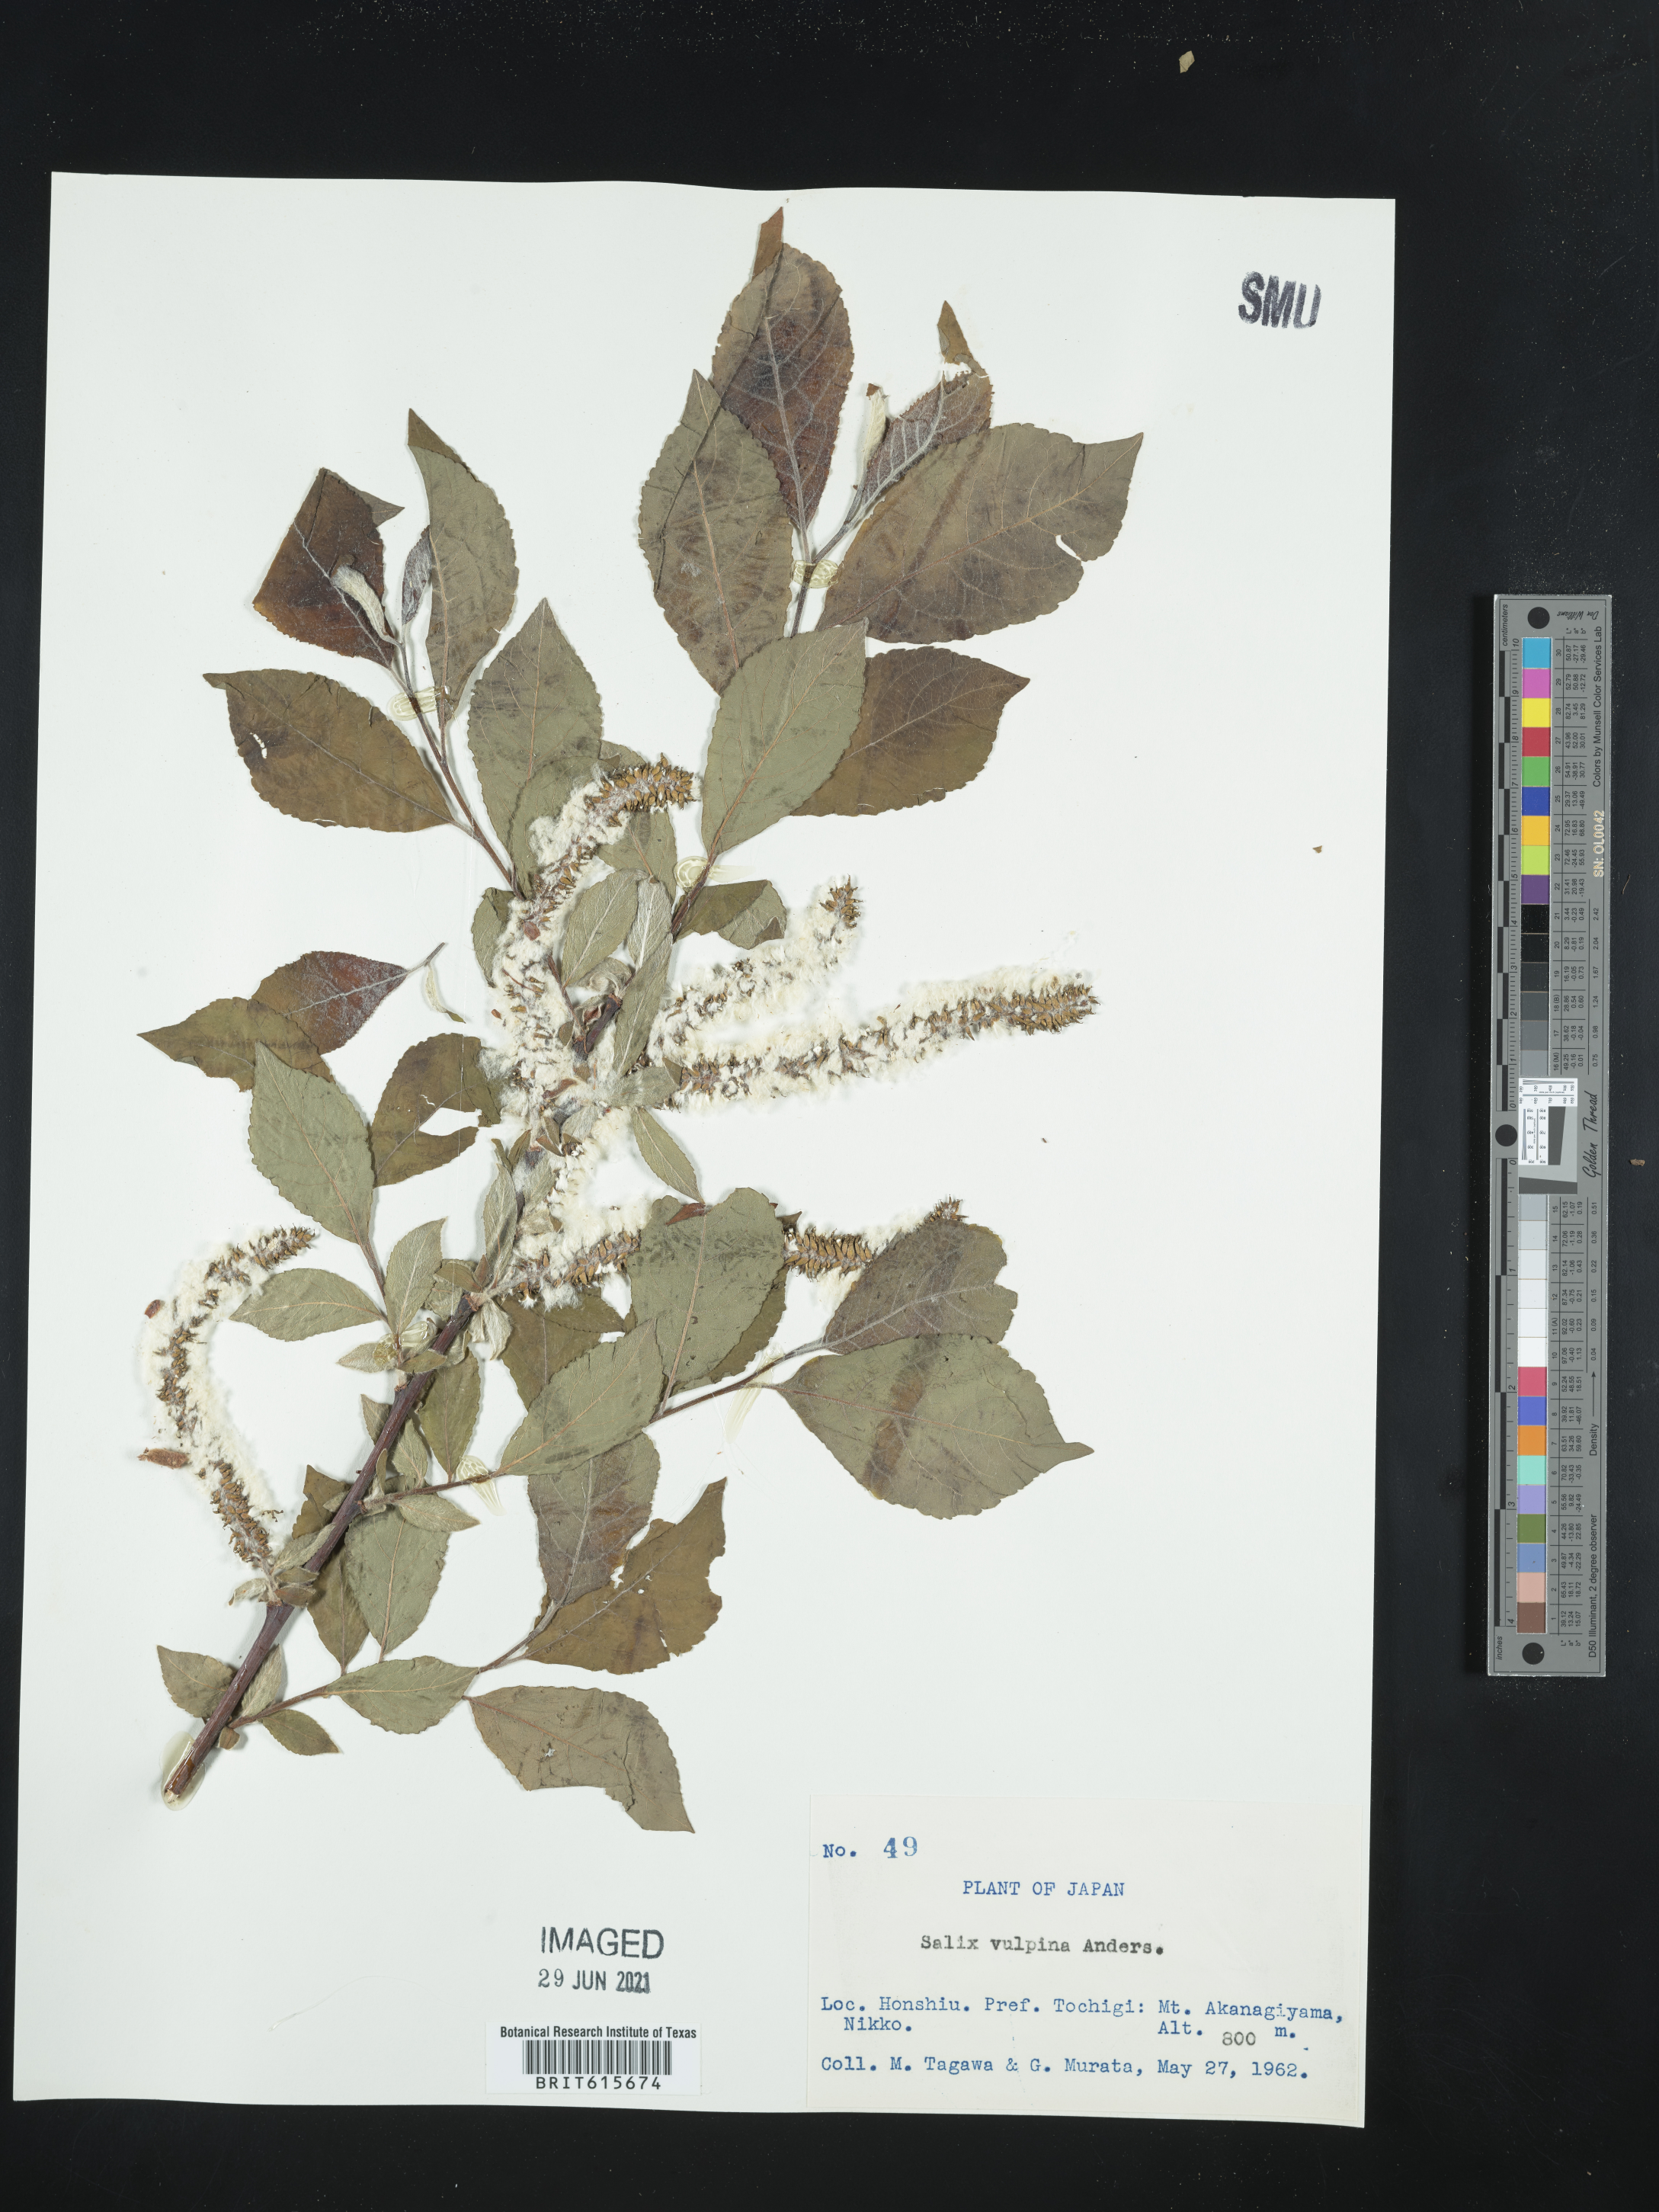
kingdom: Plantae
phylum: Tracheophyta
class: Magnoliopsida
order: Malpighiales
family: Salicaceae
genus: Salix
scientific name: Salix vulpina
